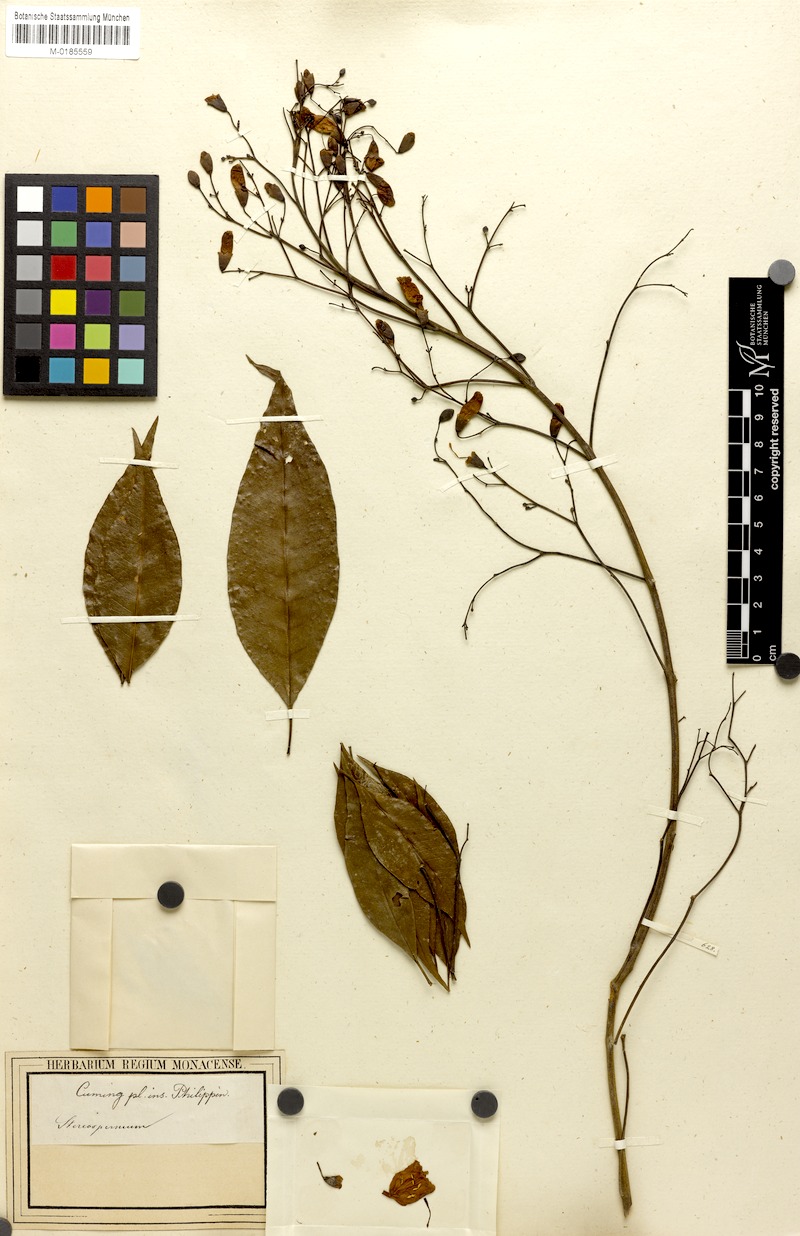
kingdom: Plantae
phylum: Tracheophyta
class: Magnoliopsida
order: Lamiales
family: Bignoniaceae
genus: Stereospermum
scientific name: Stereospermum
